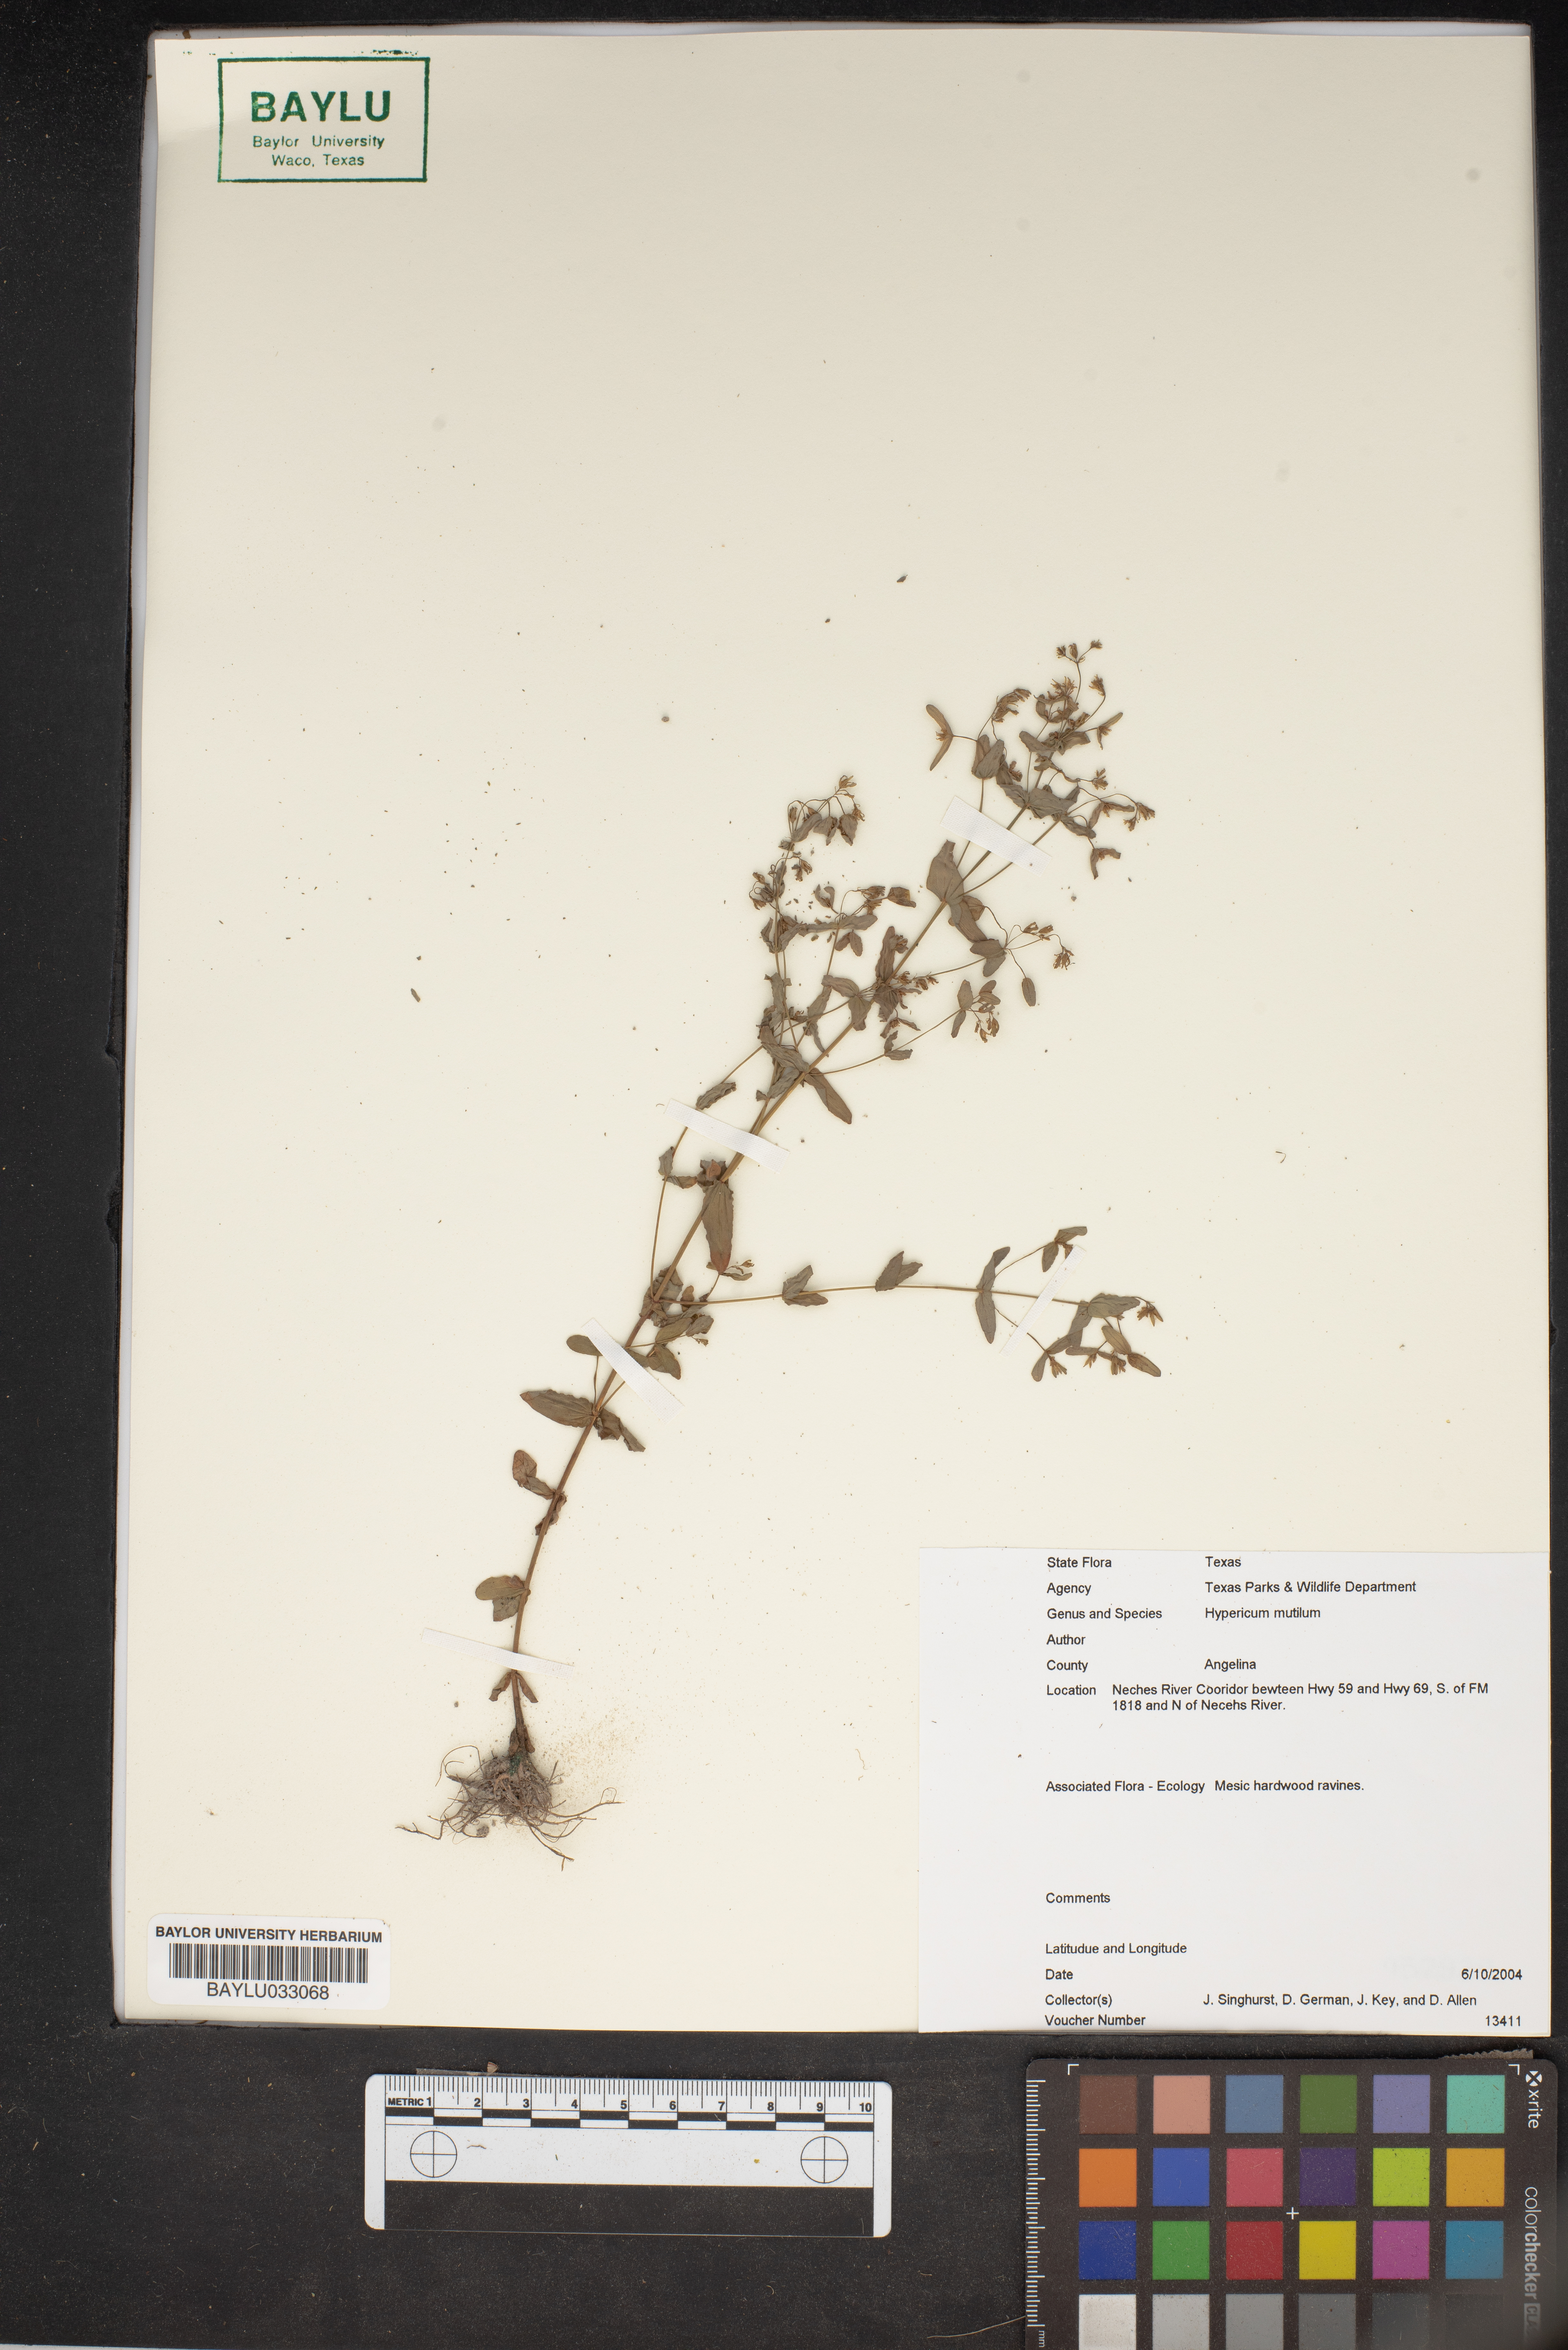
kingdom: Plantae
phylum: Tracheophyta
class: Magnoliopsida
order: Malpighiales
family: Hypericaceae
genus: Hypericum
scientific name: Hypericum mutilum
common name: Dwarf st. john's-wort
